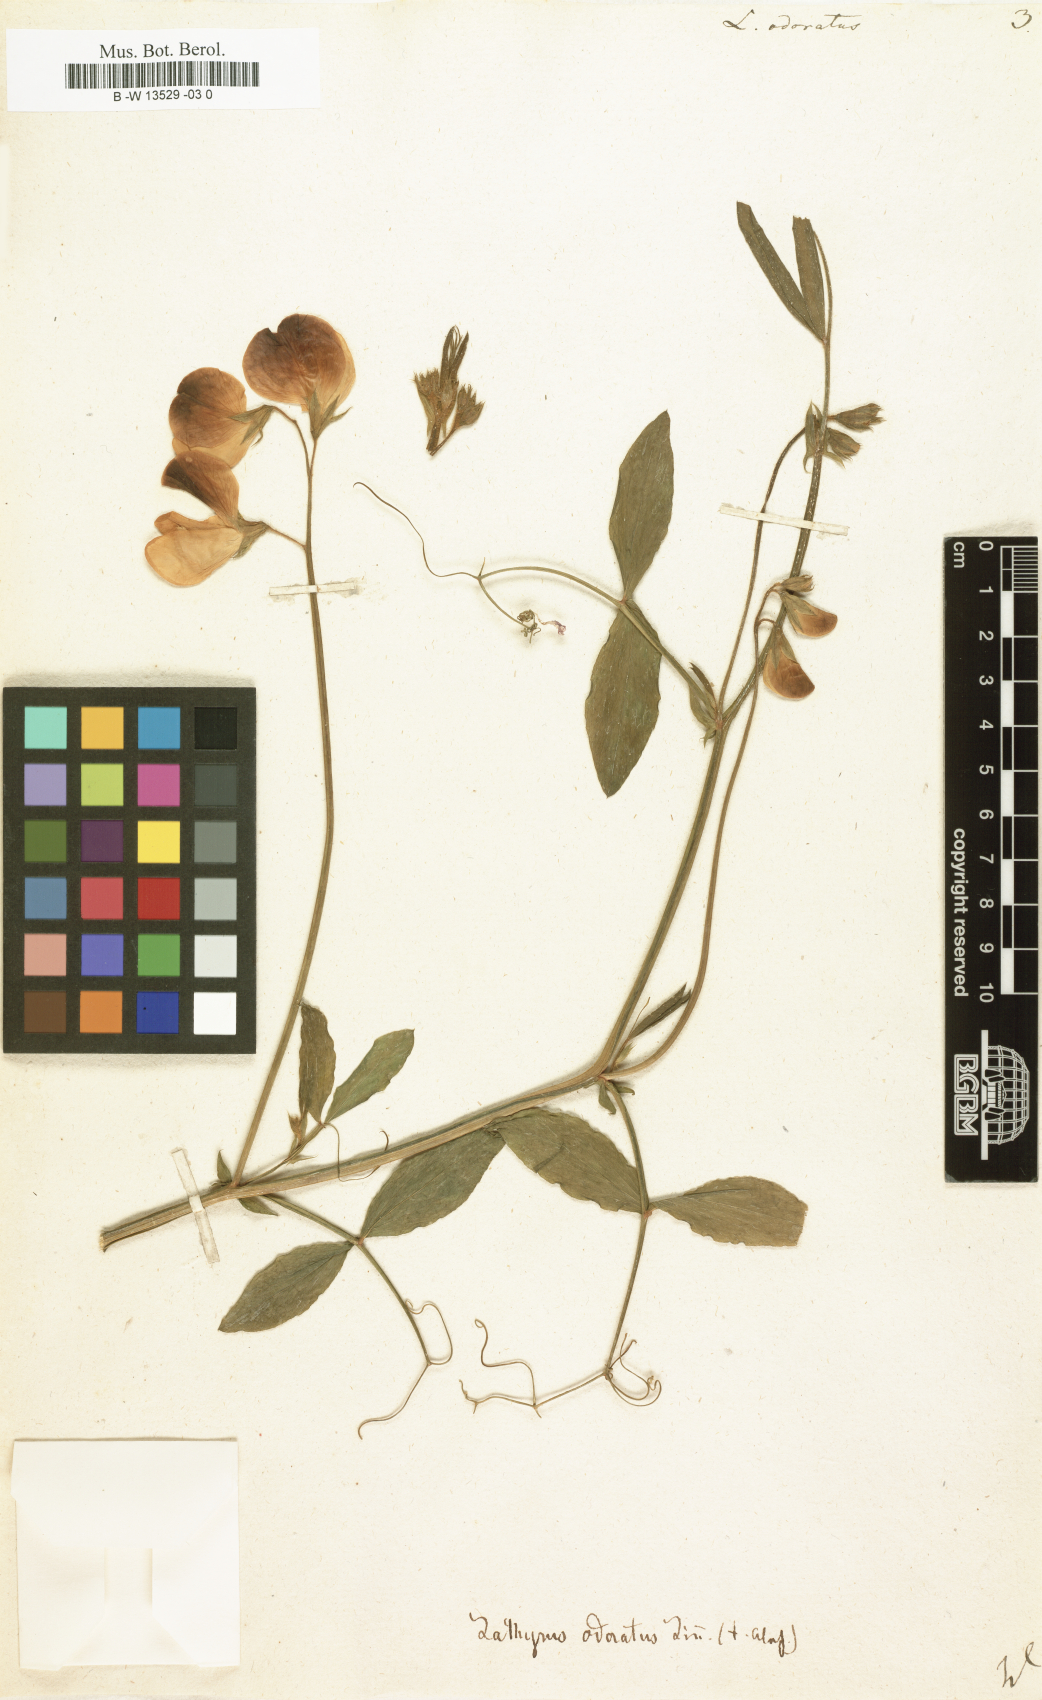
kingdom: Plantae
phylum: Tracheophyta
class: Magnoliopsida
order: Fabales
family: Fabaceae
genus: Lathyrus
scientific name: Lathyrus odoratus
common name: Sweet pea
